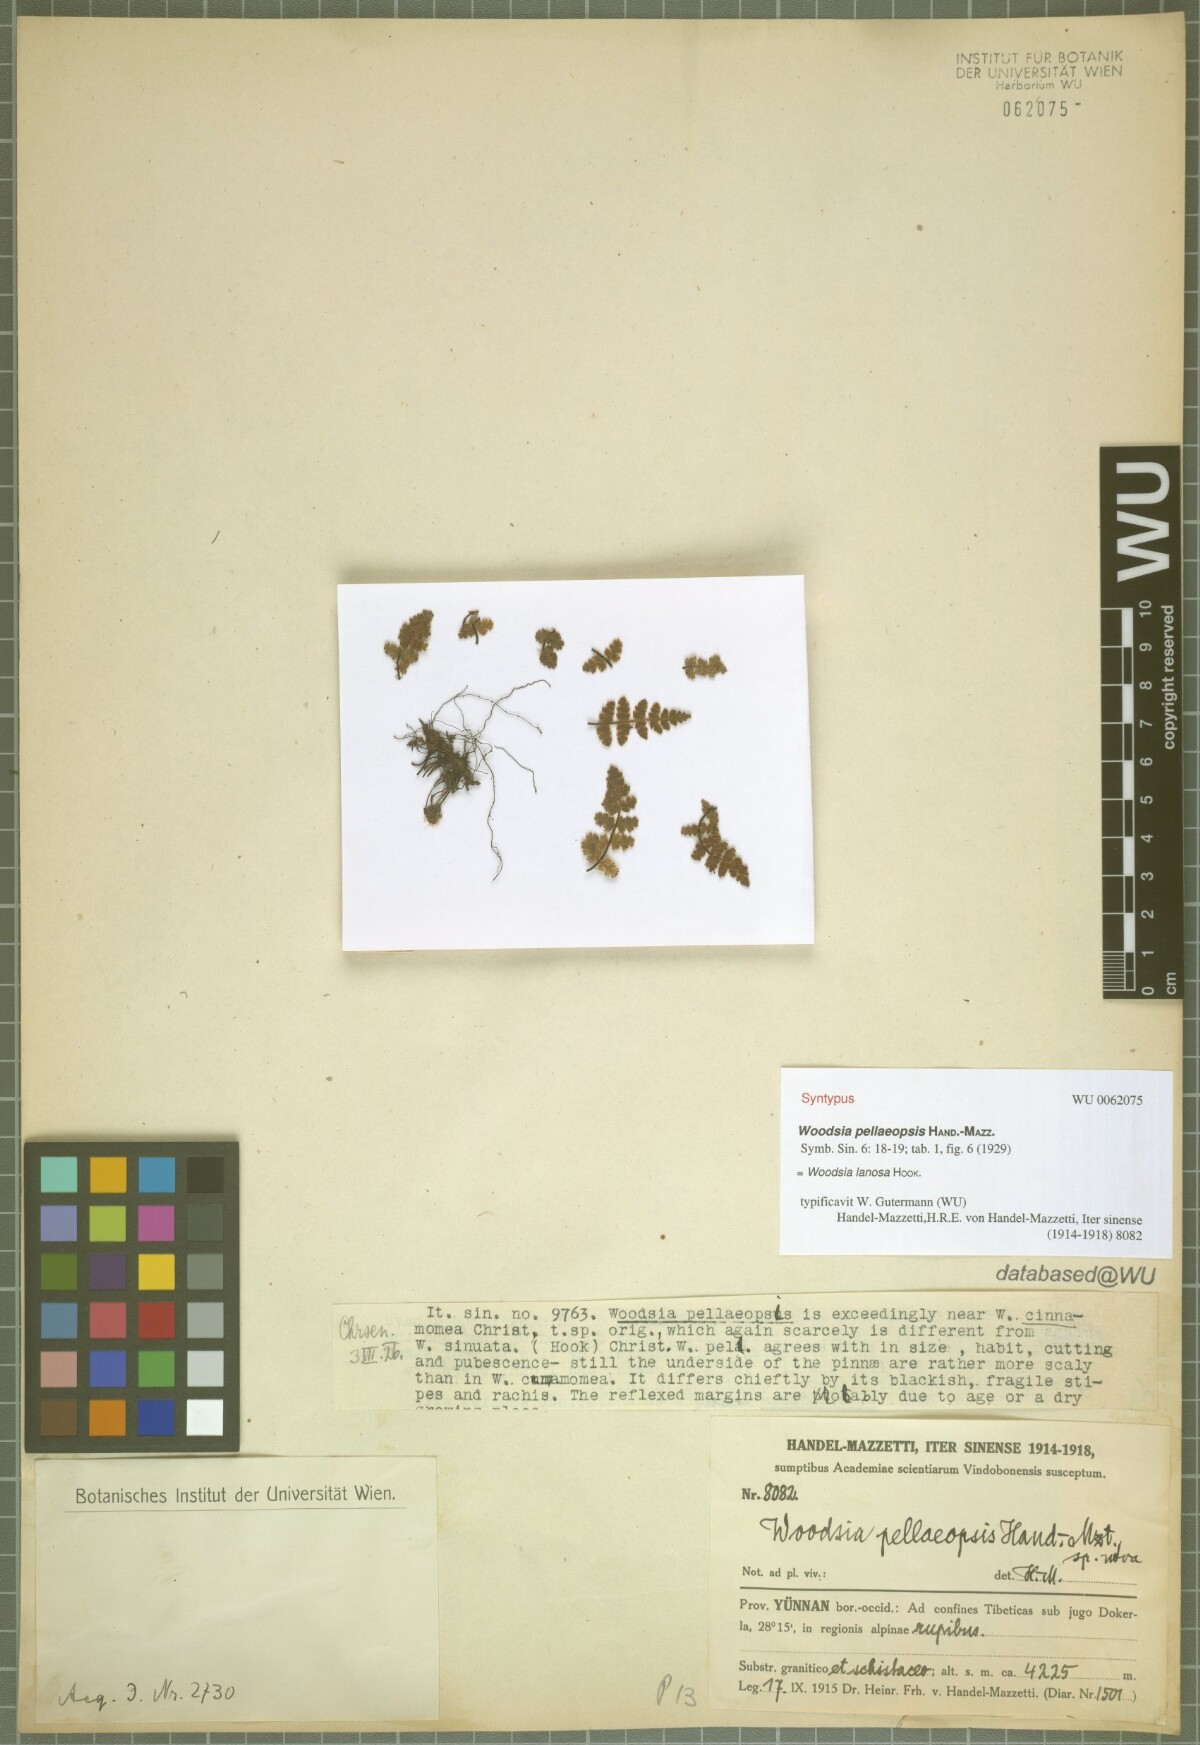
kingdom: Plantae
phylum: Tracheophyta
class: Polypodiopsida
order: Polypodiales
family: Woodsiaceae
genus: Woodsia
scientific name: Woodsia lanosa
